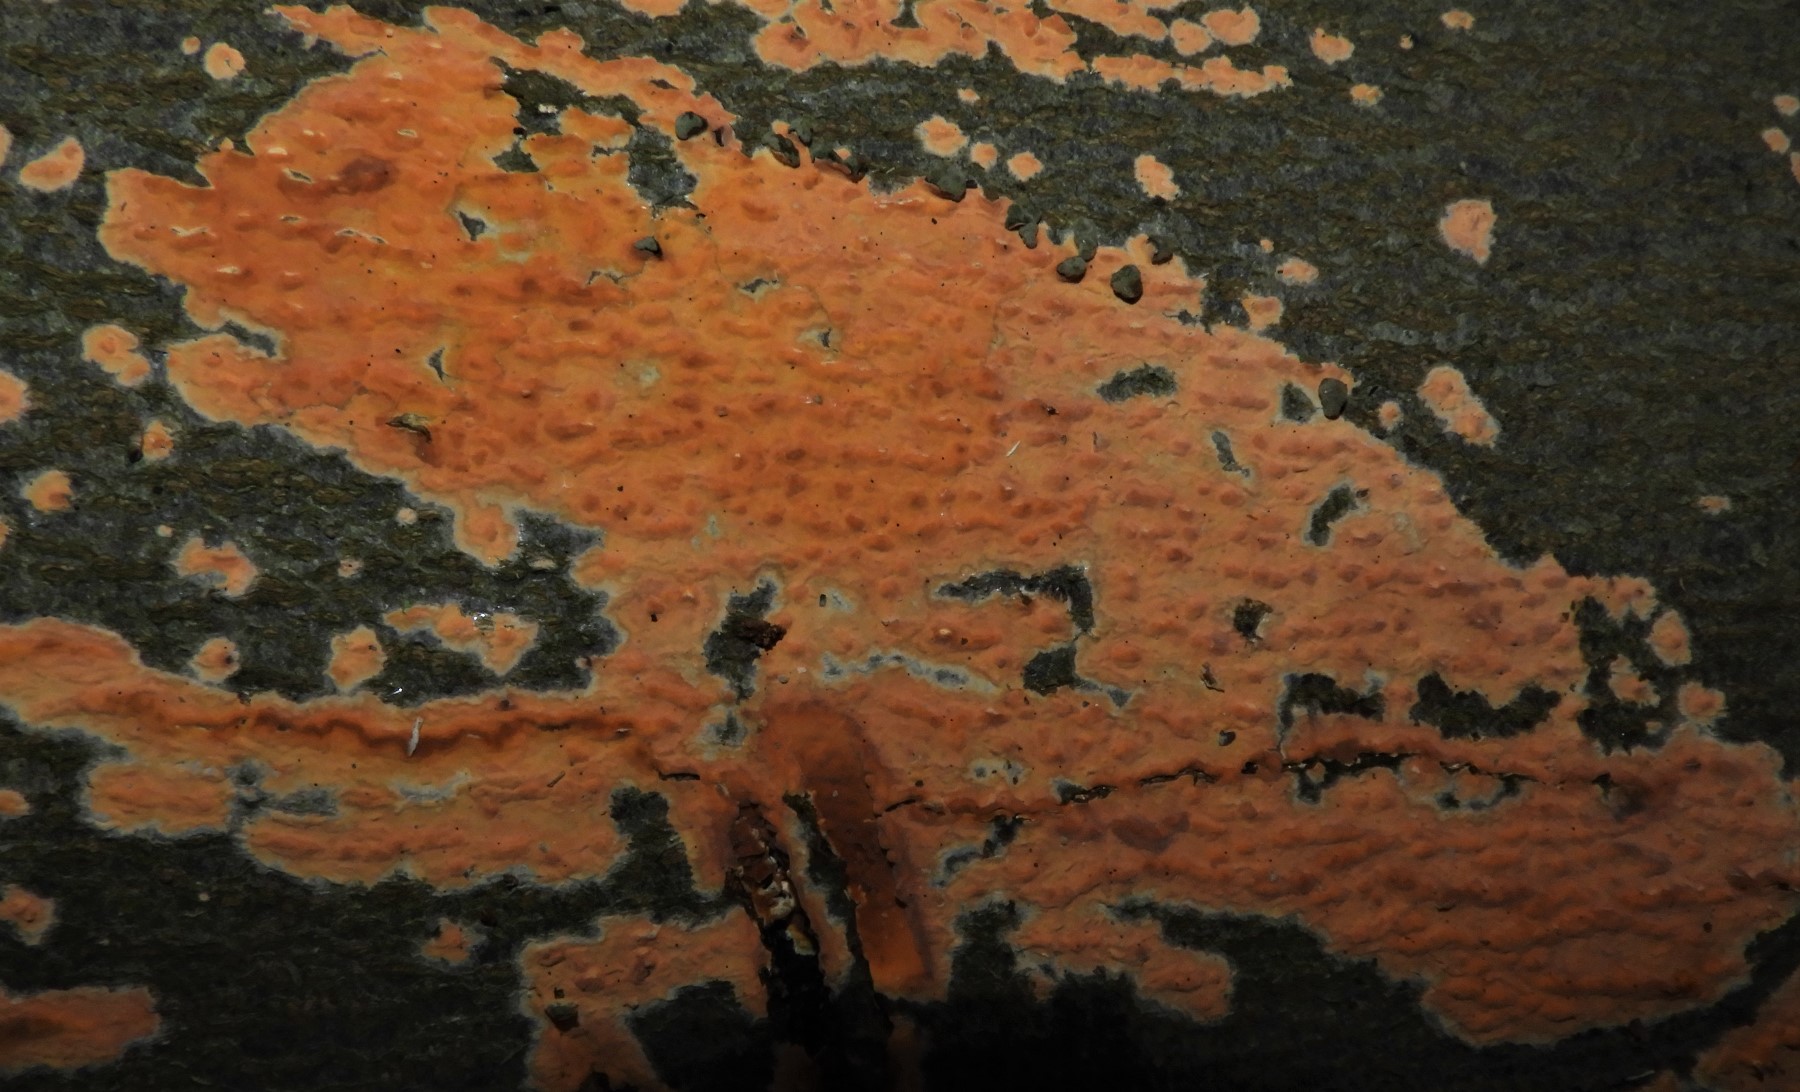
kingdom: Fungi
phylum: Basidiomycota
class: Agaricomycetes
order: Russulales
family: Peniophoraceae
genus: Peniophora
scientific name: Peniophora incarnata
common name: laksefarvet voksskind
